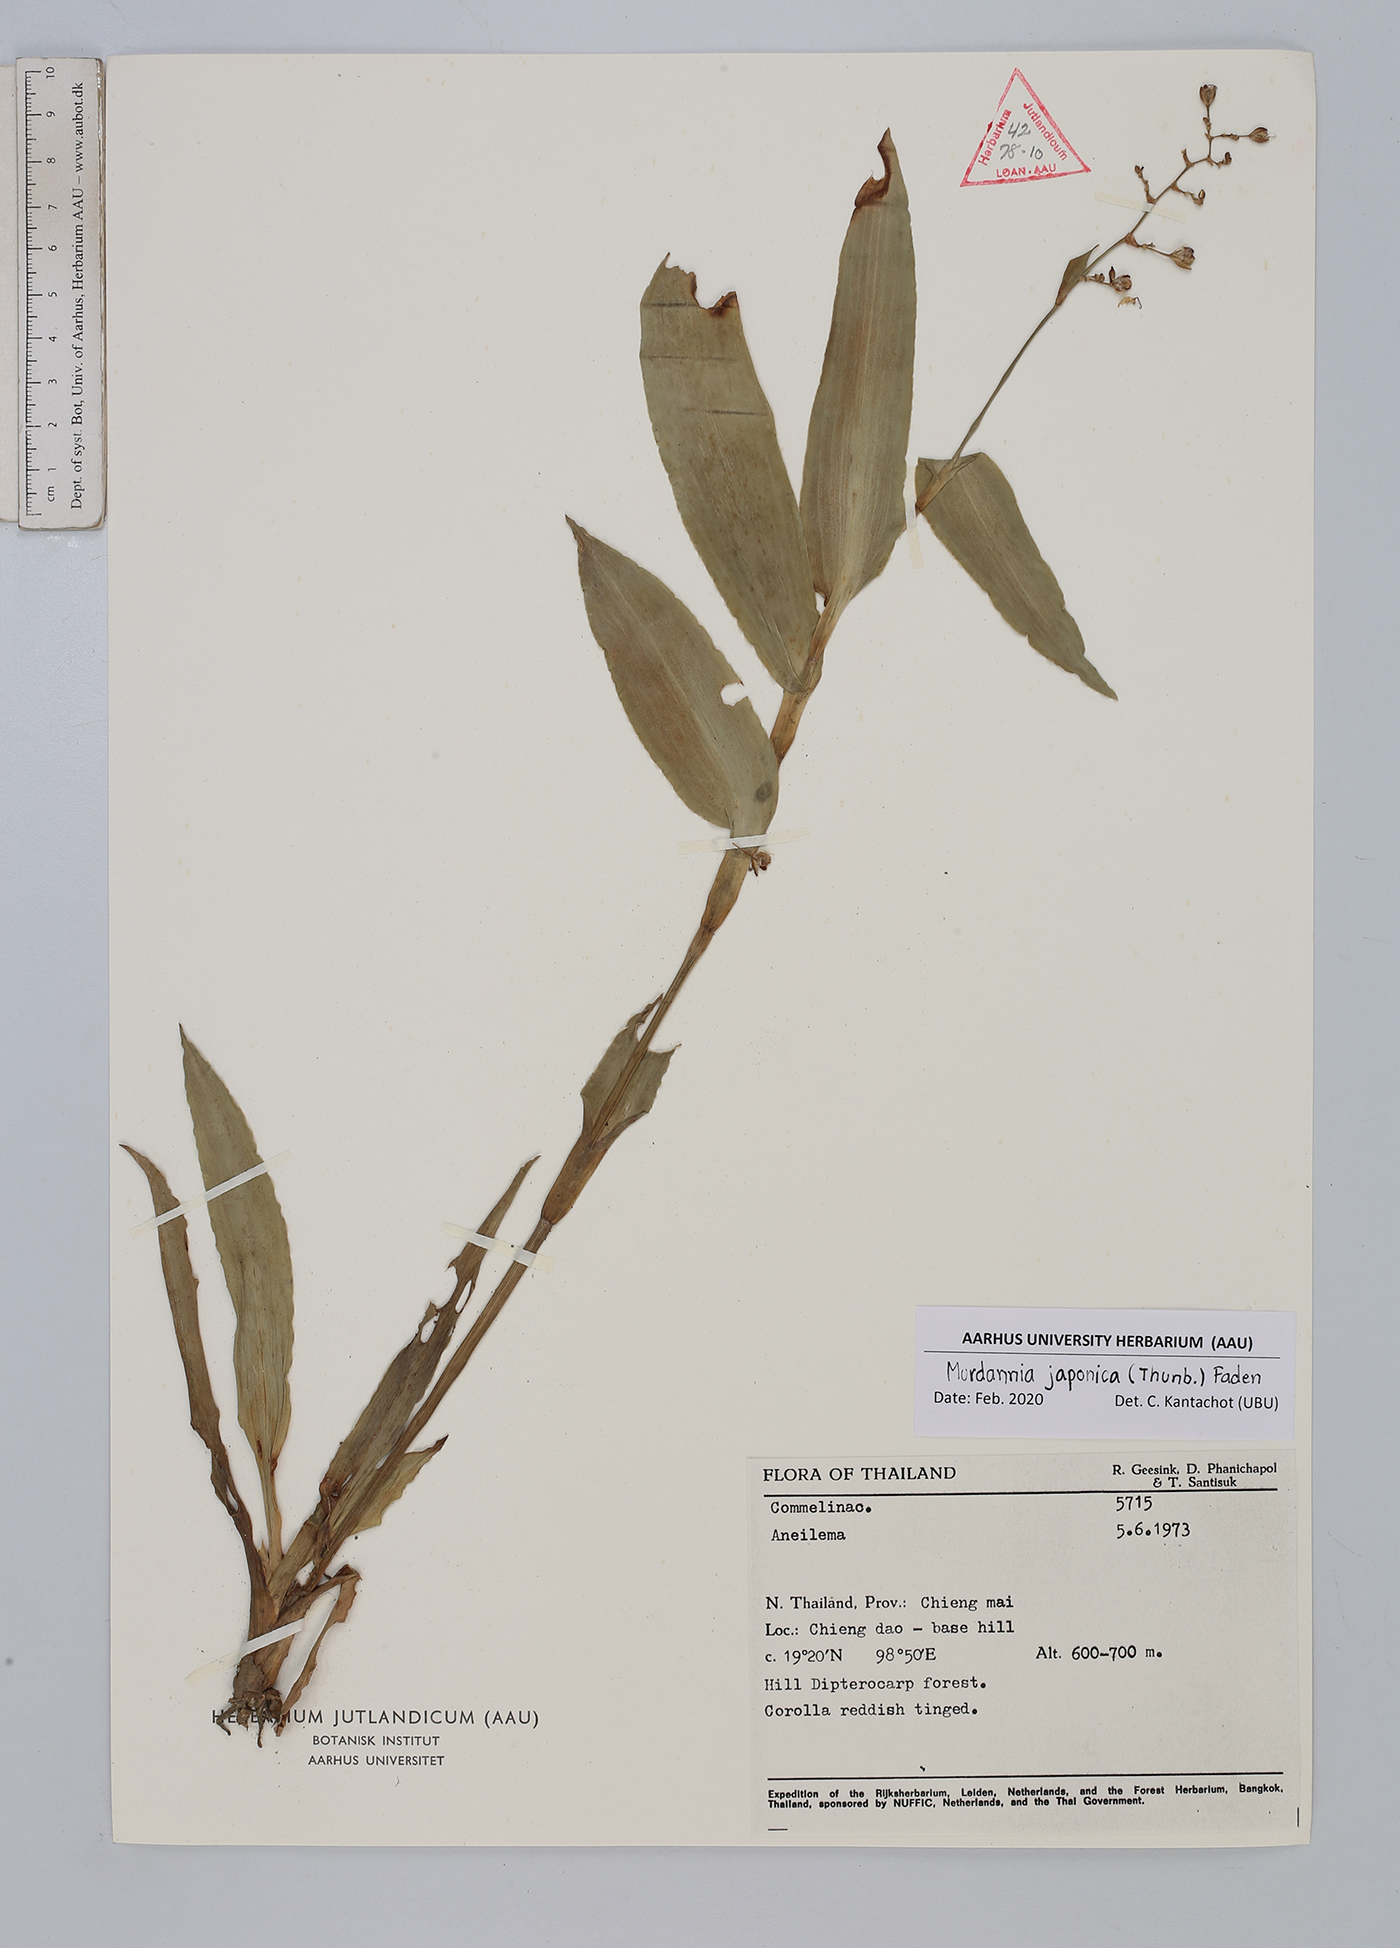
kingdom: Plantae
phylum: Tracheophyta
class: Liliopsida
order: Commelinales
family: Commelinaceae
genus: Murdannia
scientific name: Murdannia japonica
